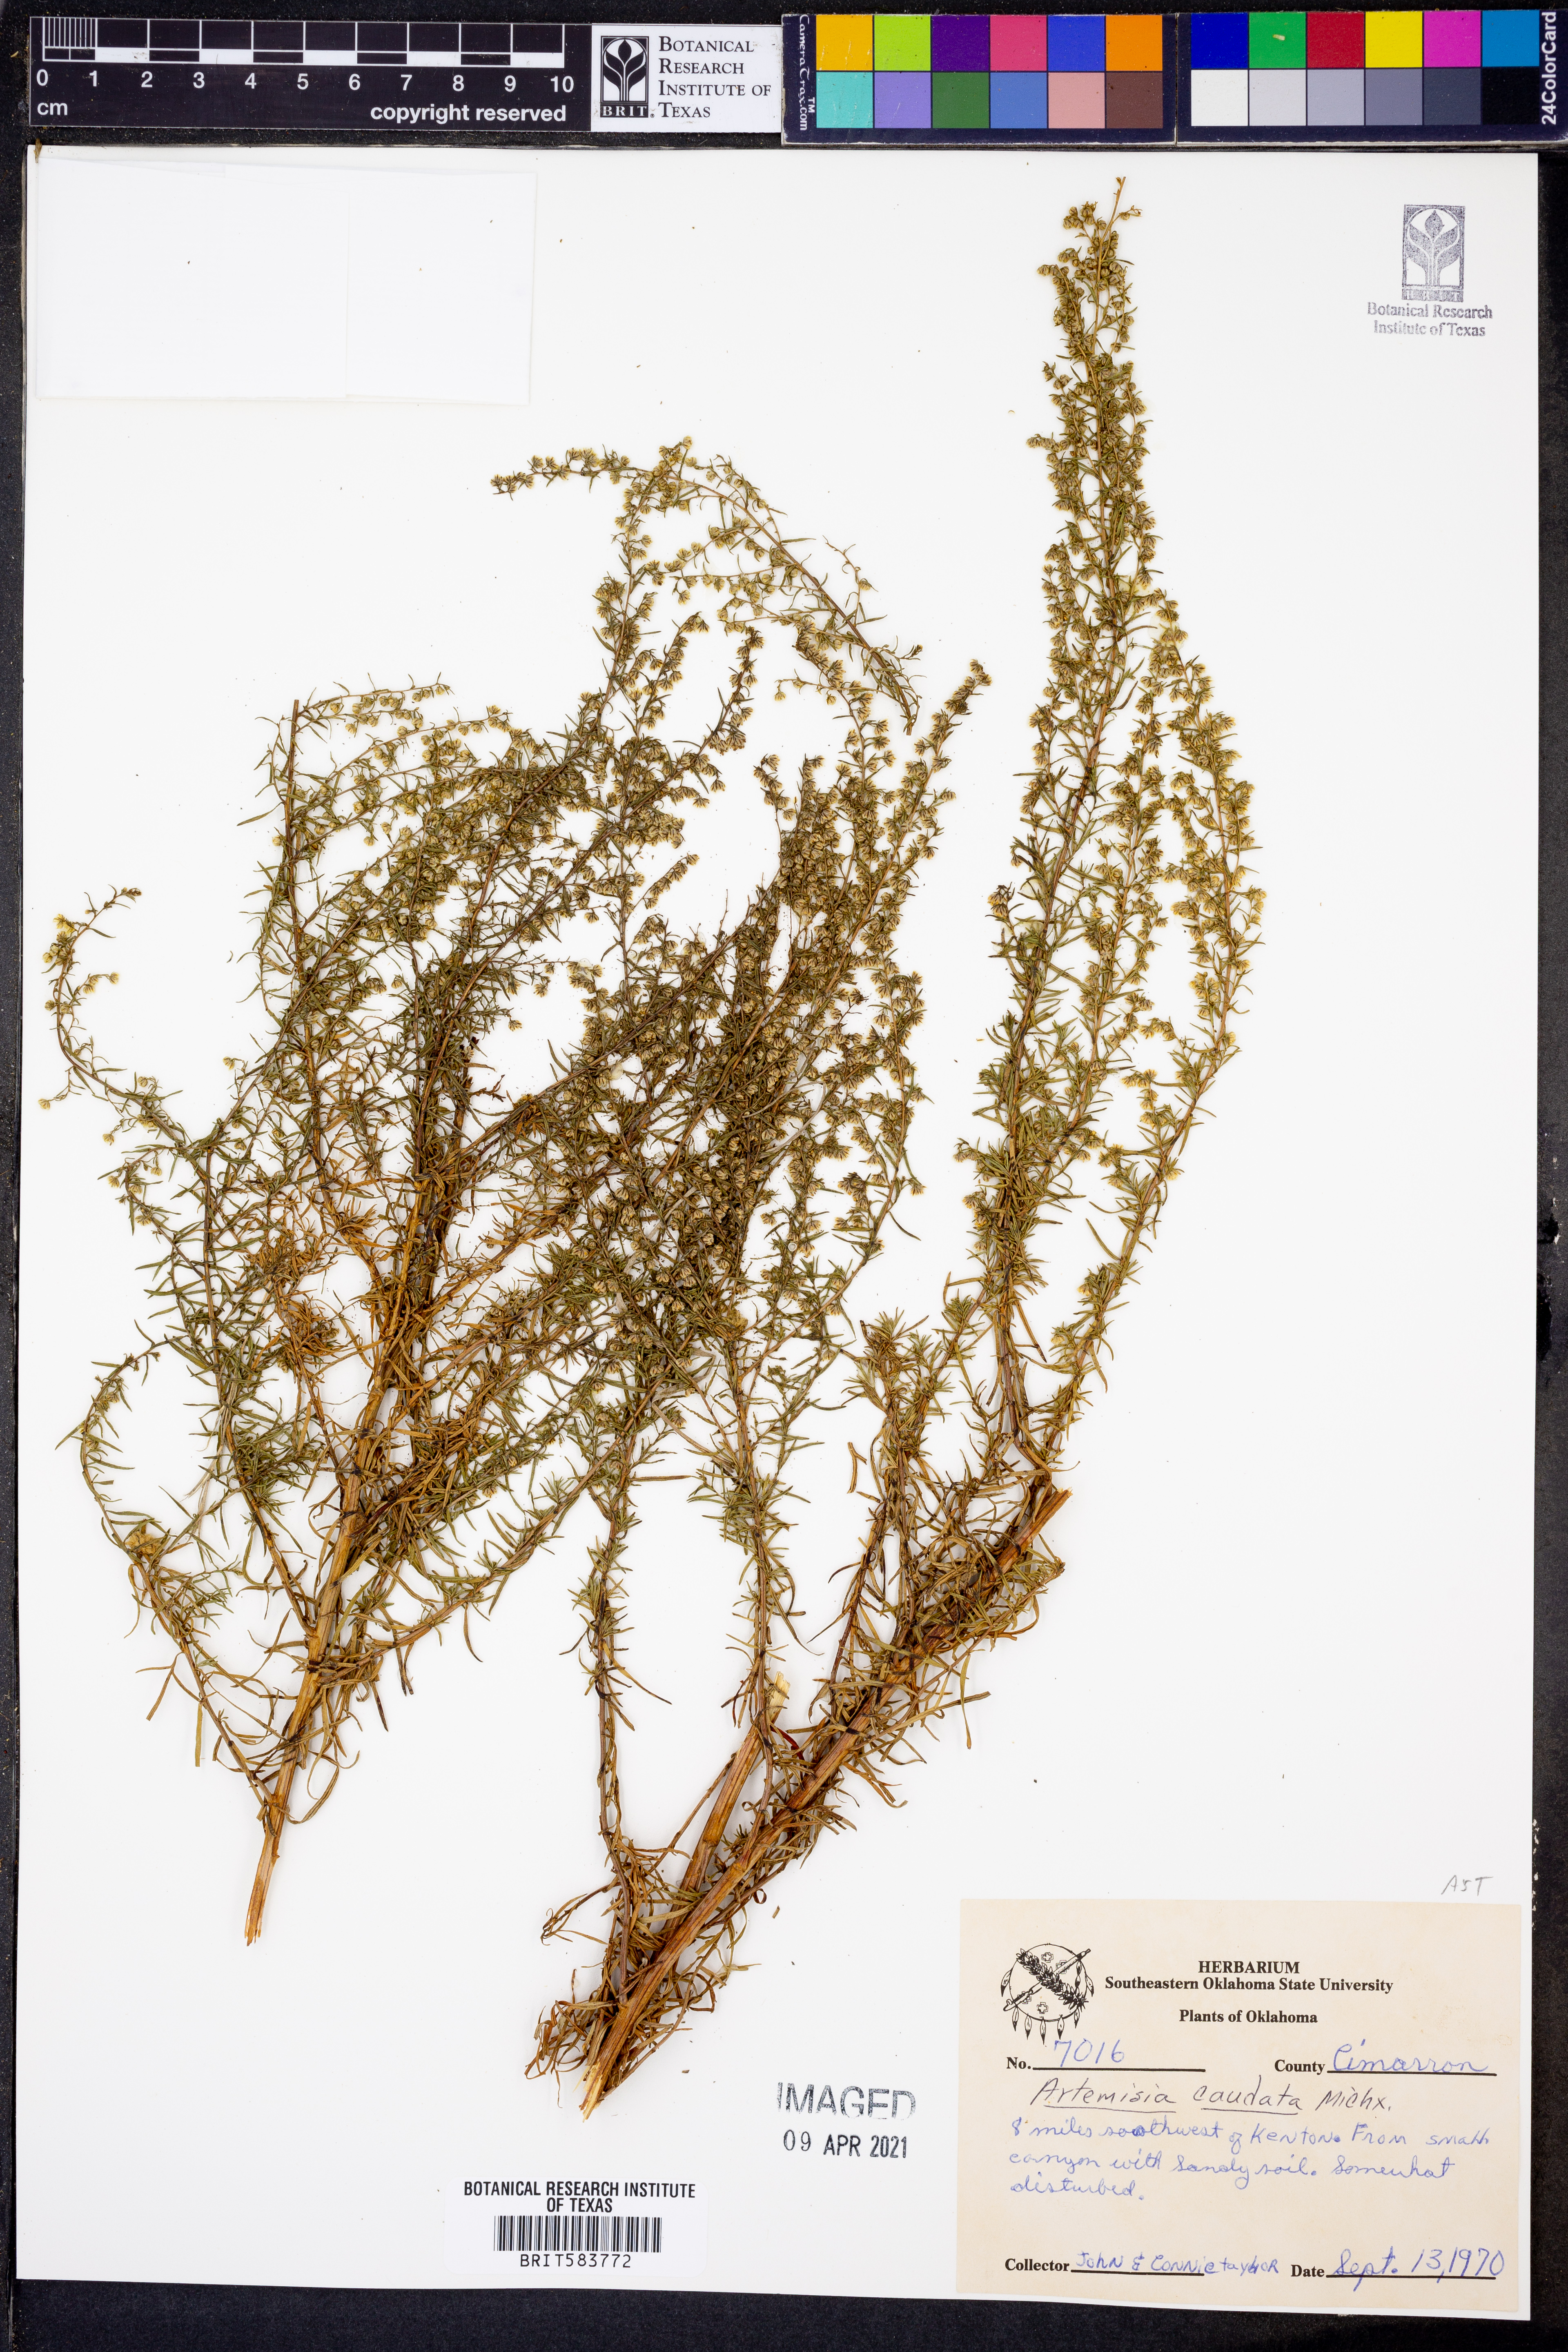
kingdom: Plantae
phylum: Tracheophyta
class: Magnoliopsida
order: Asterales
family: Asteraceae
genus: Artemisia
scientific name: Artemisia campestris
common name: Field wormwood
